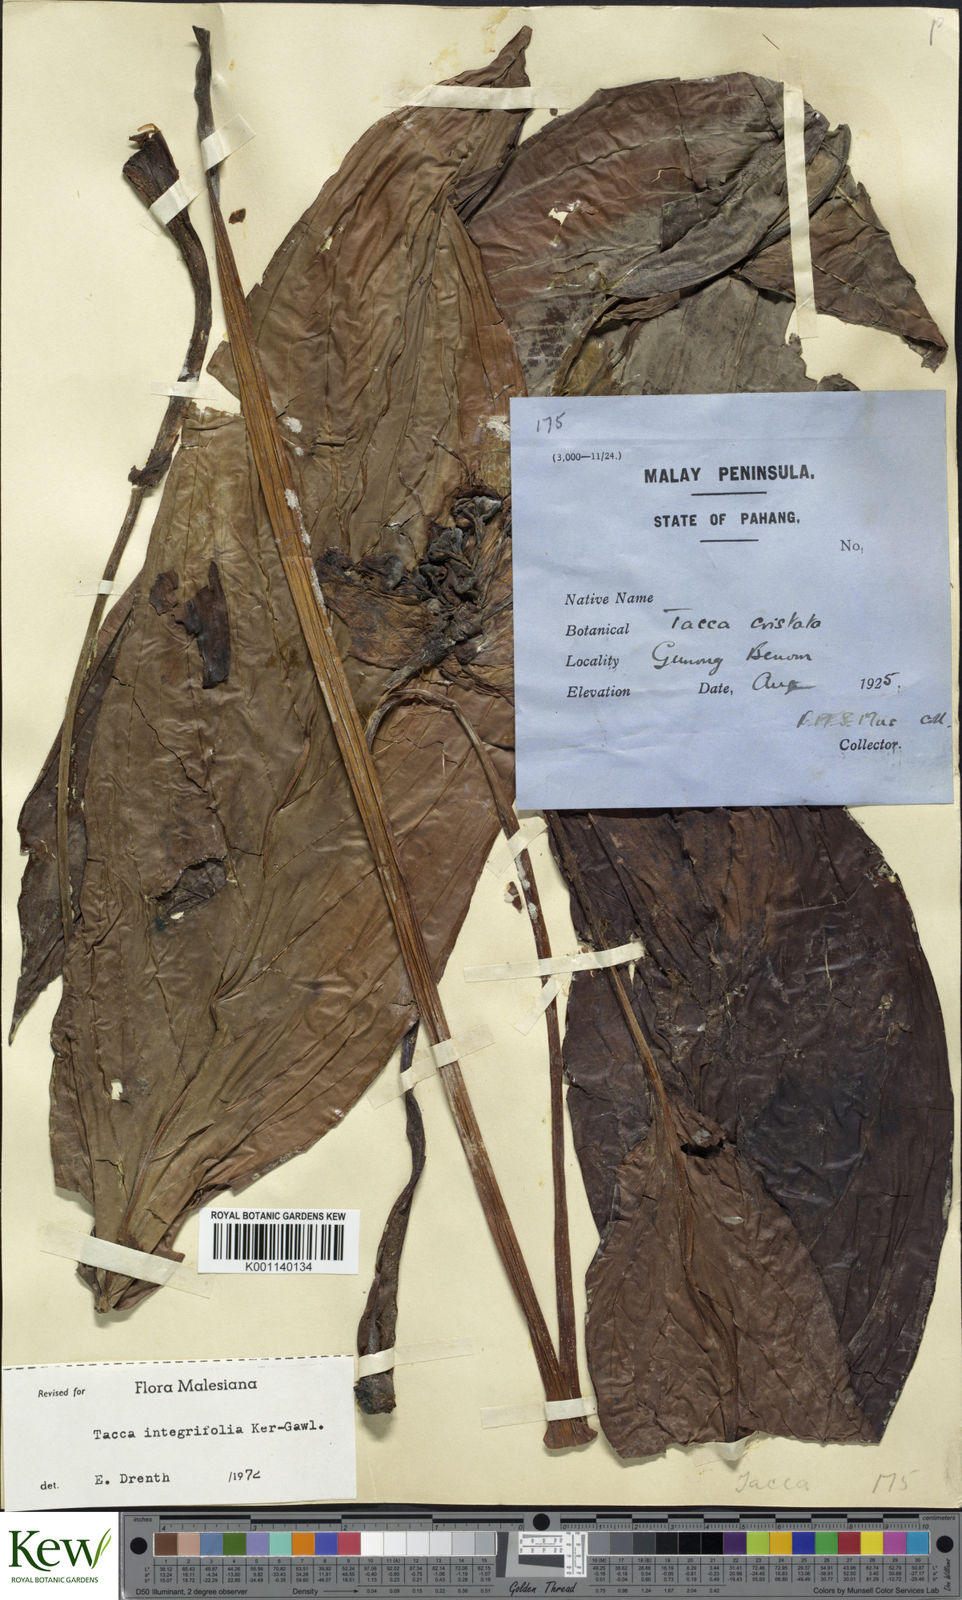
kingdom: Plantae
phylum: Tracheophyta
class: Liliopsida
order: Dioscoreales
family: Dioscoreaceae
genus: Tacca
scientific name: Tacca integrifolia
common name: Batplant
